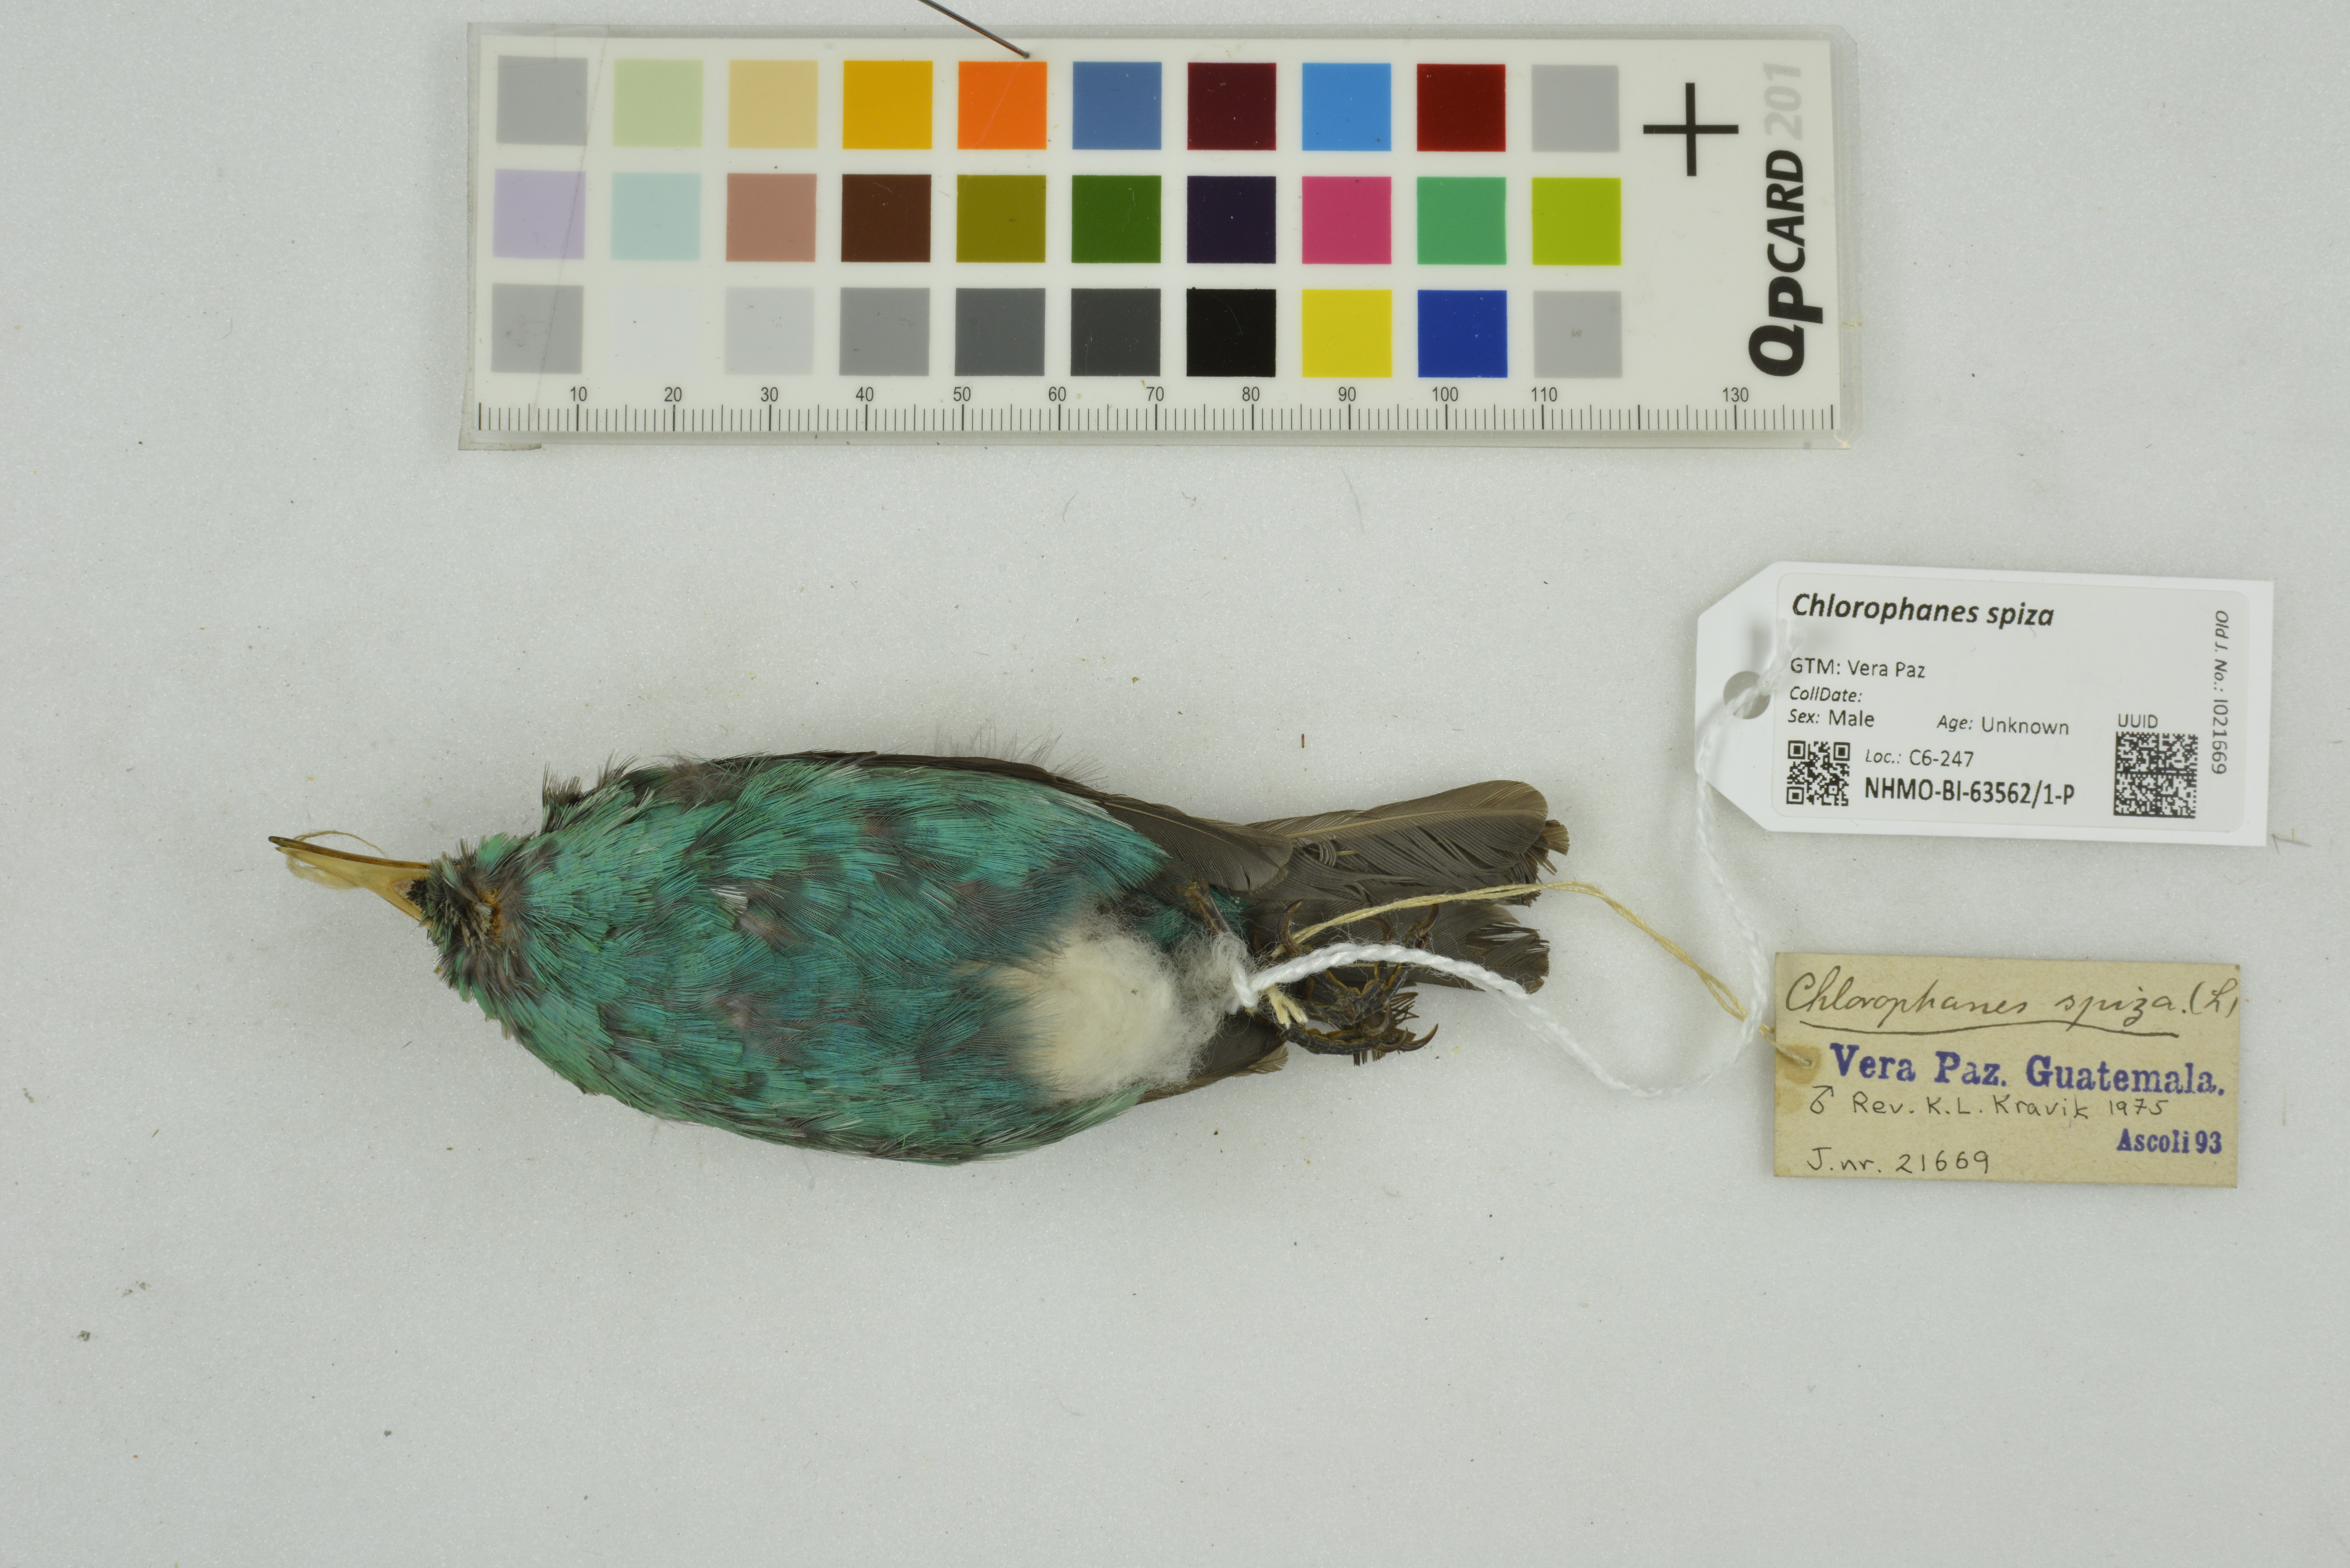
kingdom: Animalia
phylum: Chordata
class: Aves
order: Passeriformes
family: Thraupidae
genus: Chlorophanes
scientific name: Chlorophanes spiza
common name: Green honeycreeper
